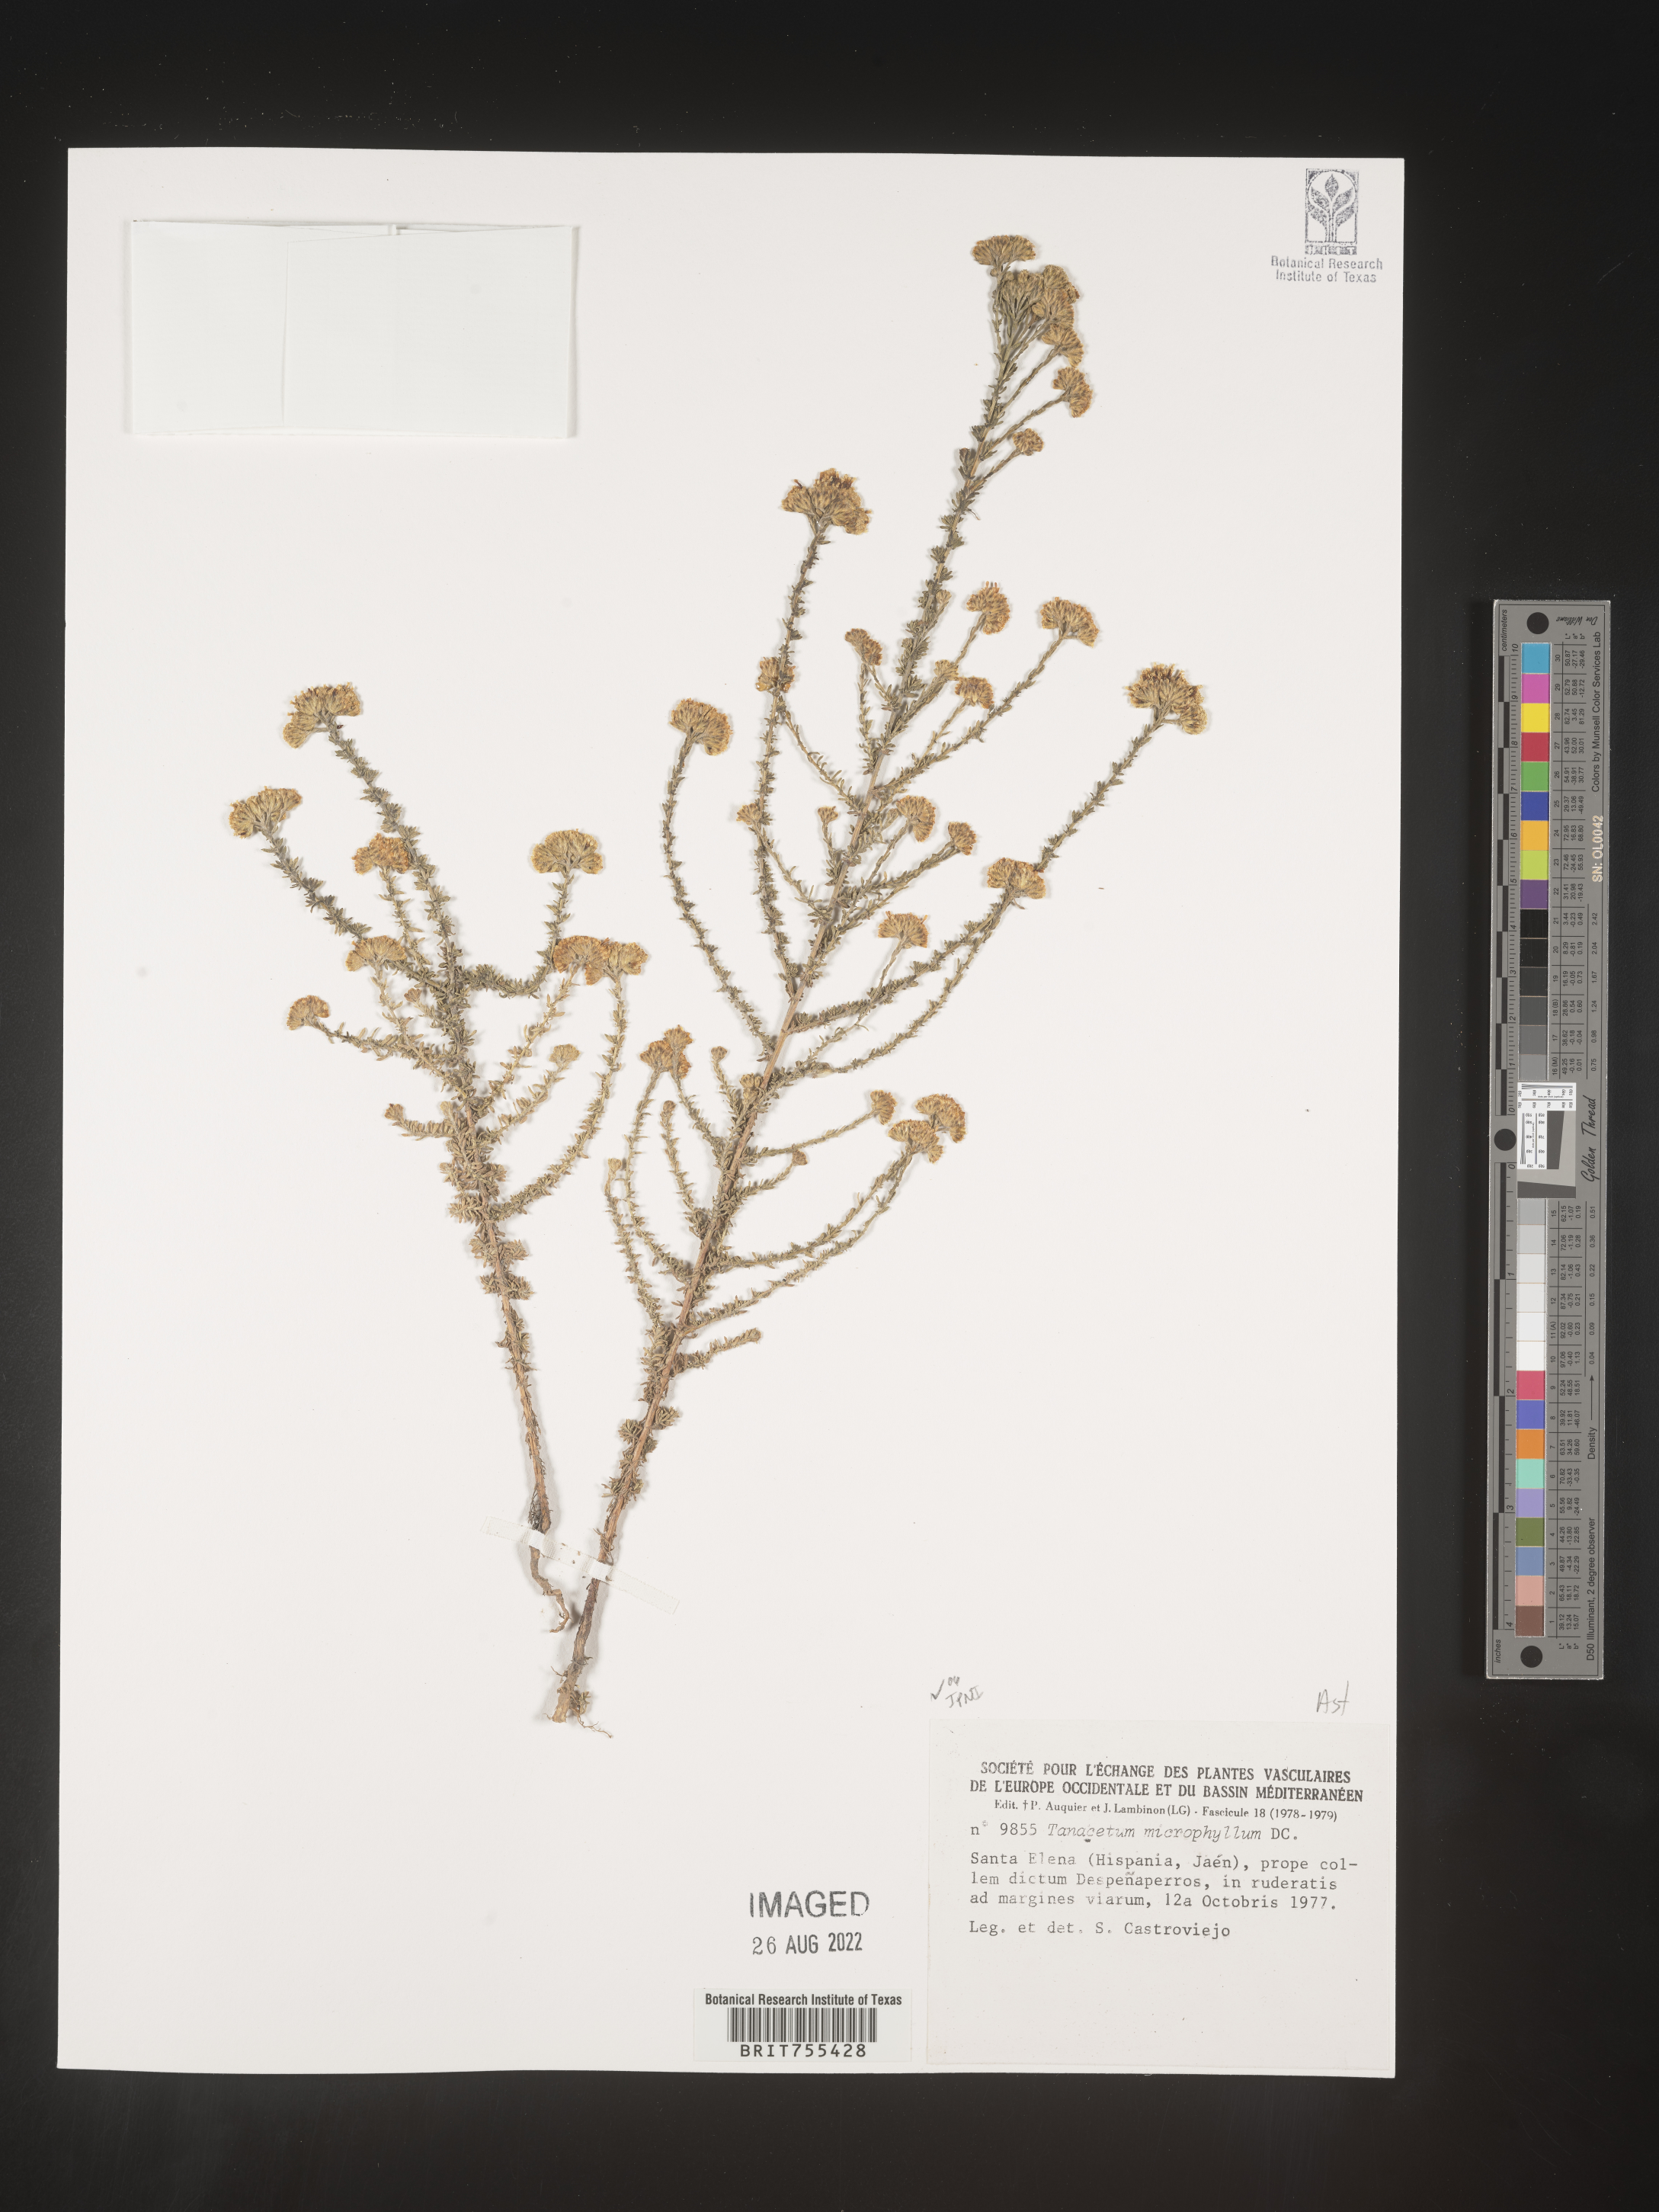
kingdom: Plantae
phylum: Tracheophyta
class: Magnoliopsida
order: Asterales
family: Asteraceae
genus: Tanacetum
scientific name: Tanacetum
